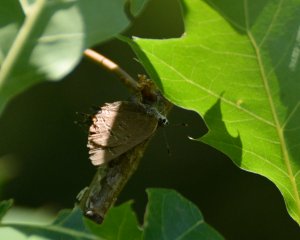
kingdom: Animalia
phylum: Arthropoda
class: Insecta
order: Lepidoptera
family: Lycaenidae
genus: Satyrium
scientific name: Satyrium calanus
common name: Banded Hairstreak
